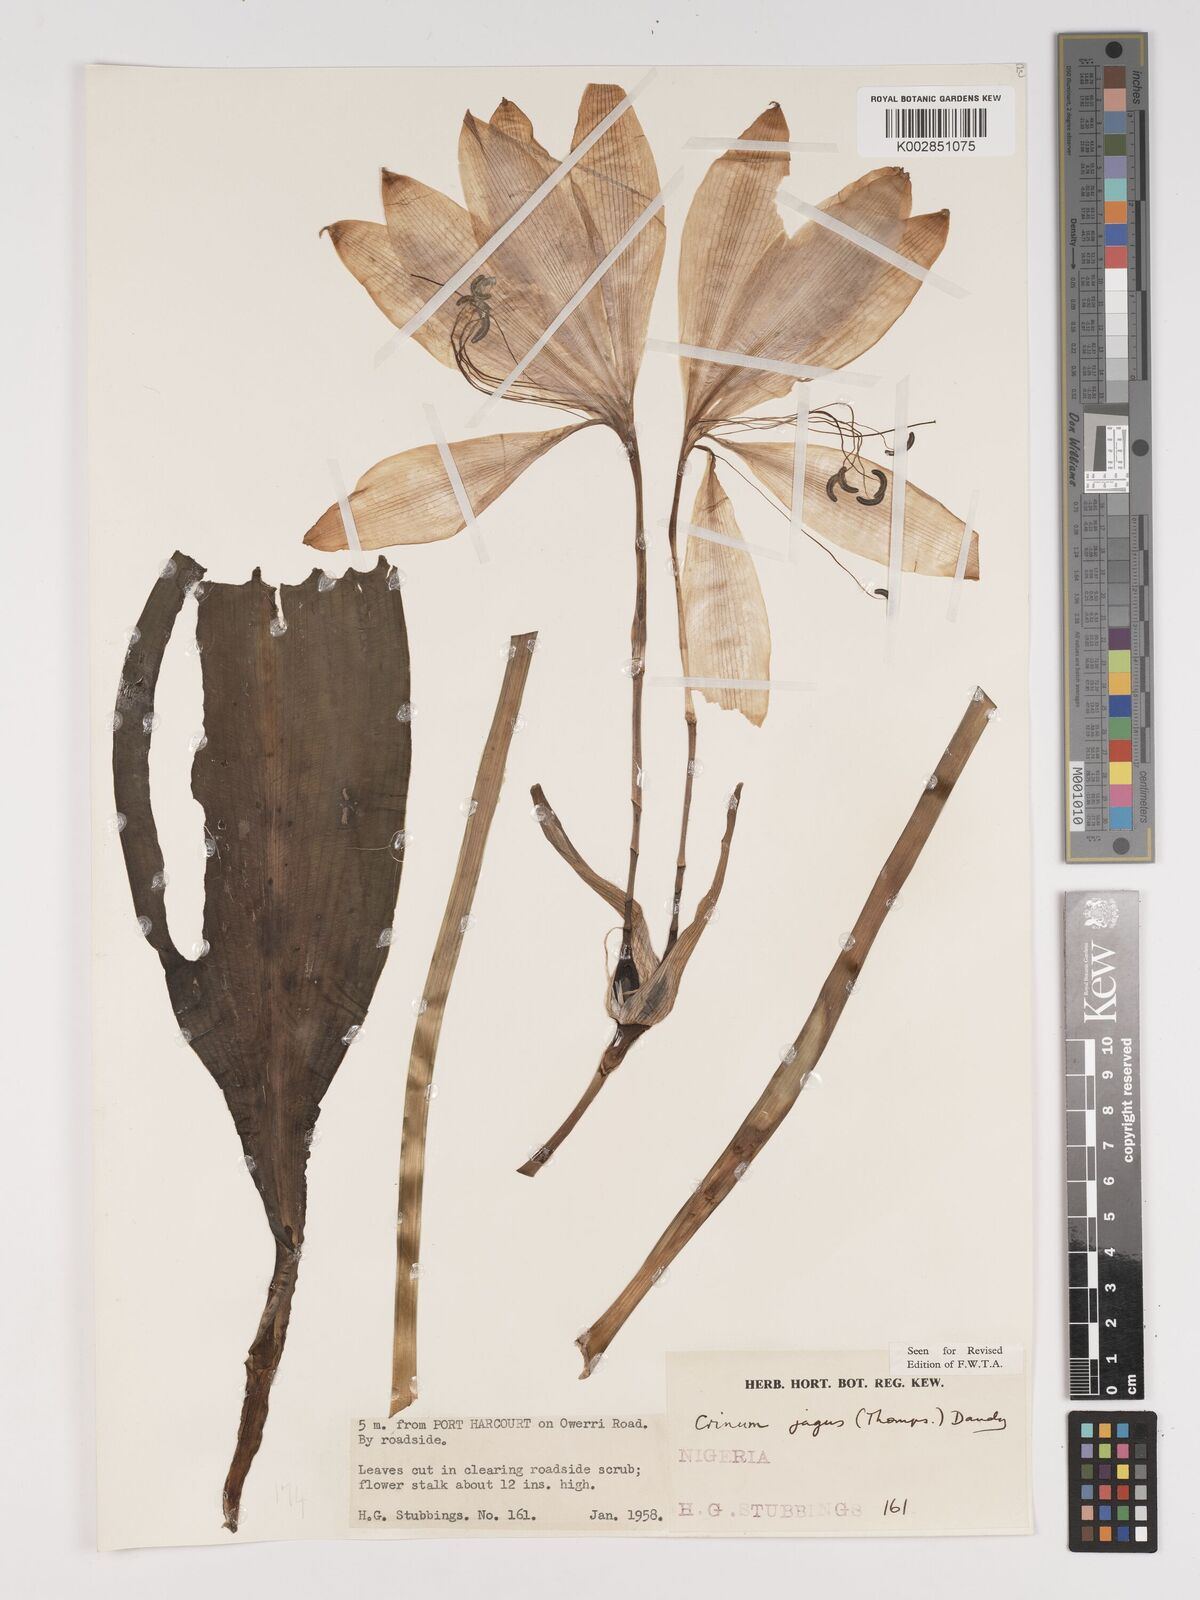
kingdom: Plantae
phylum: Tracheophyta
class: Liliopsida
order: Asparagales
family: Amaryllidaceae
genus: Crinum
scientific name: Crinum jagus
